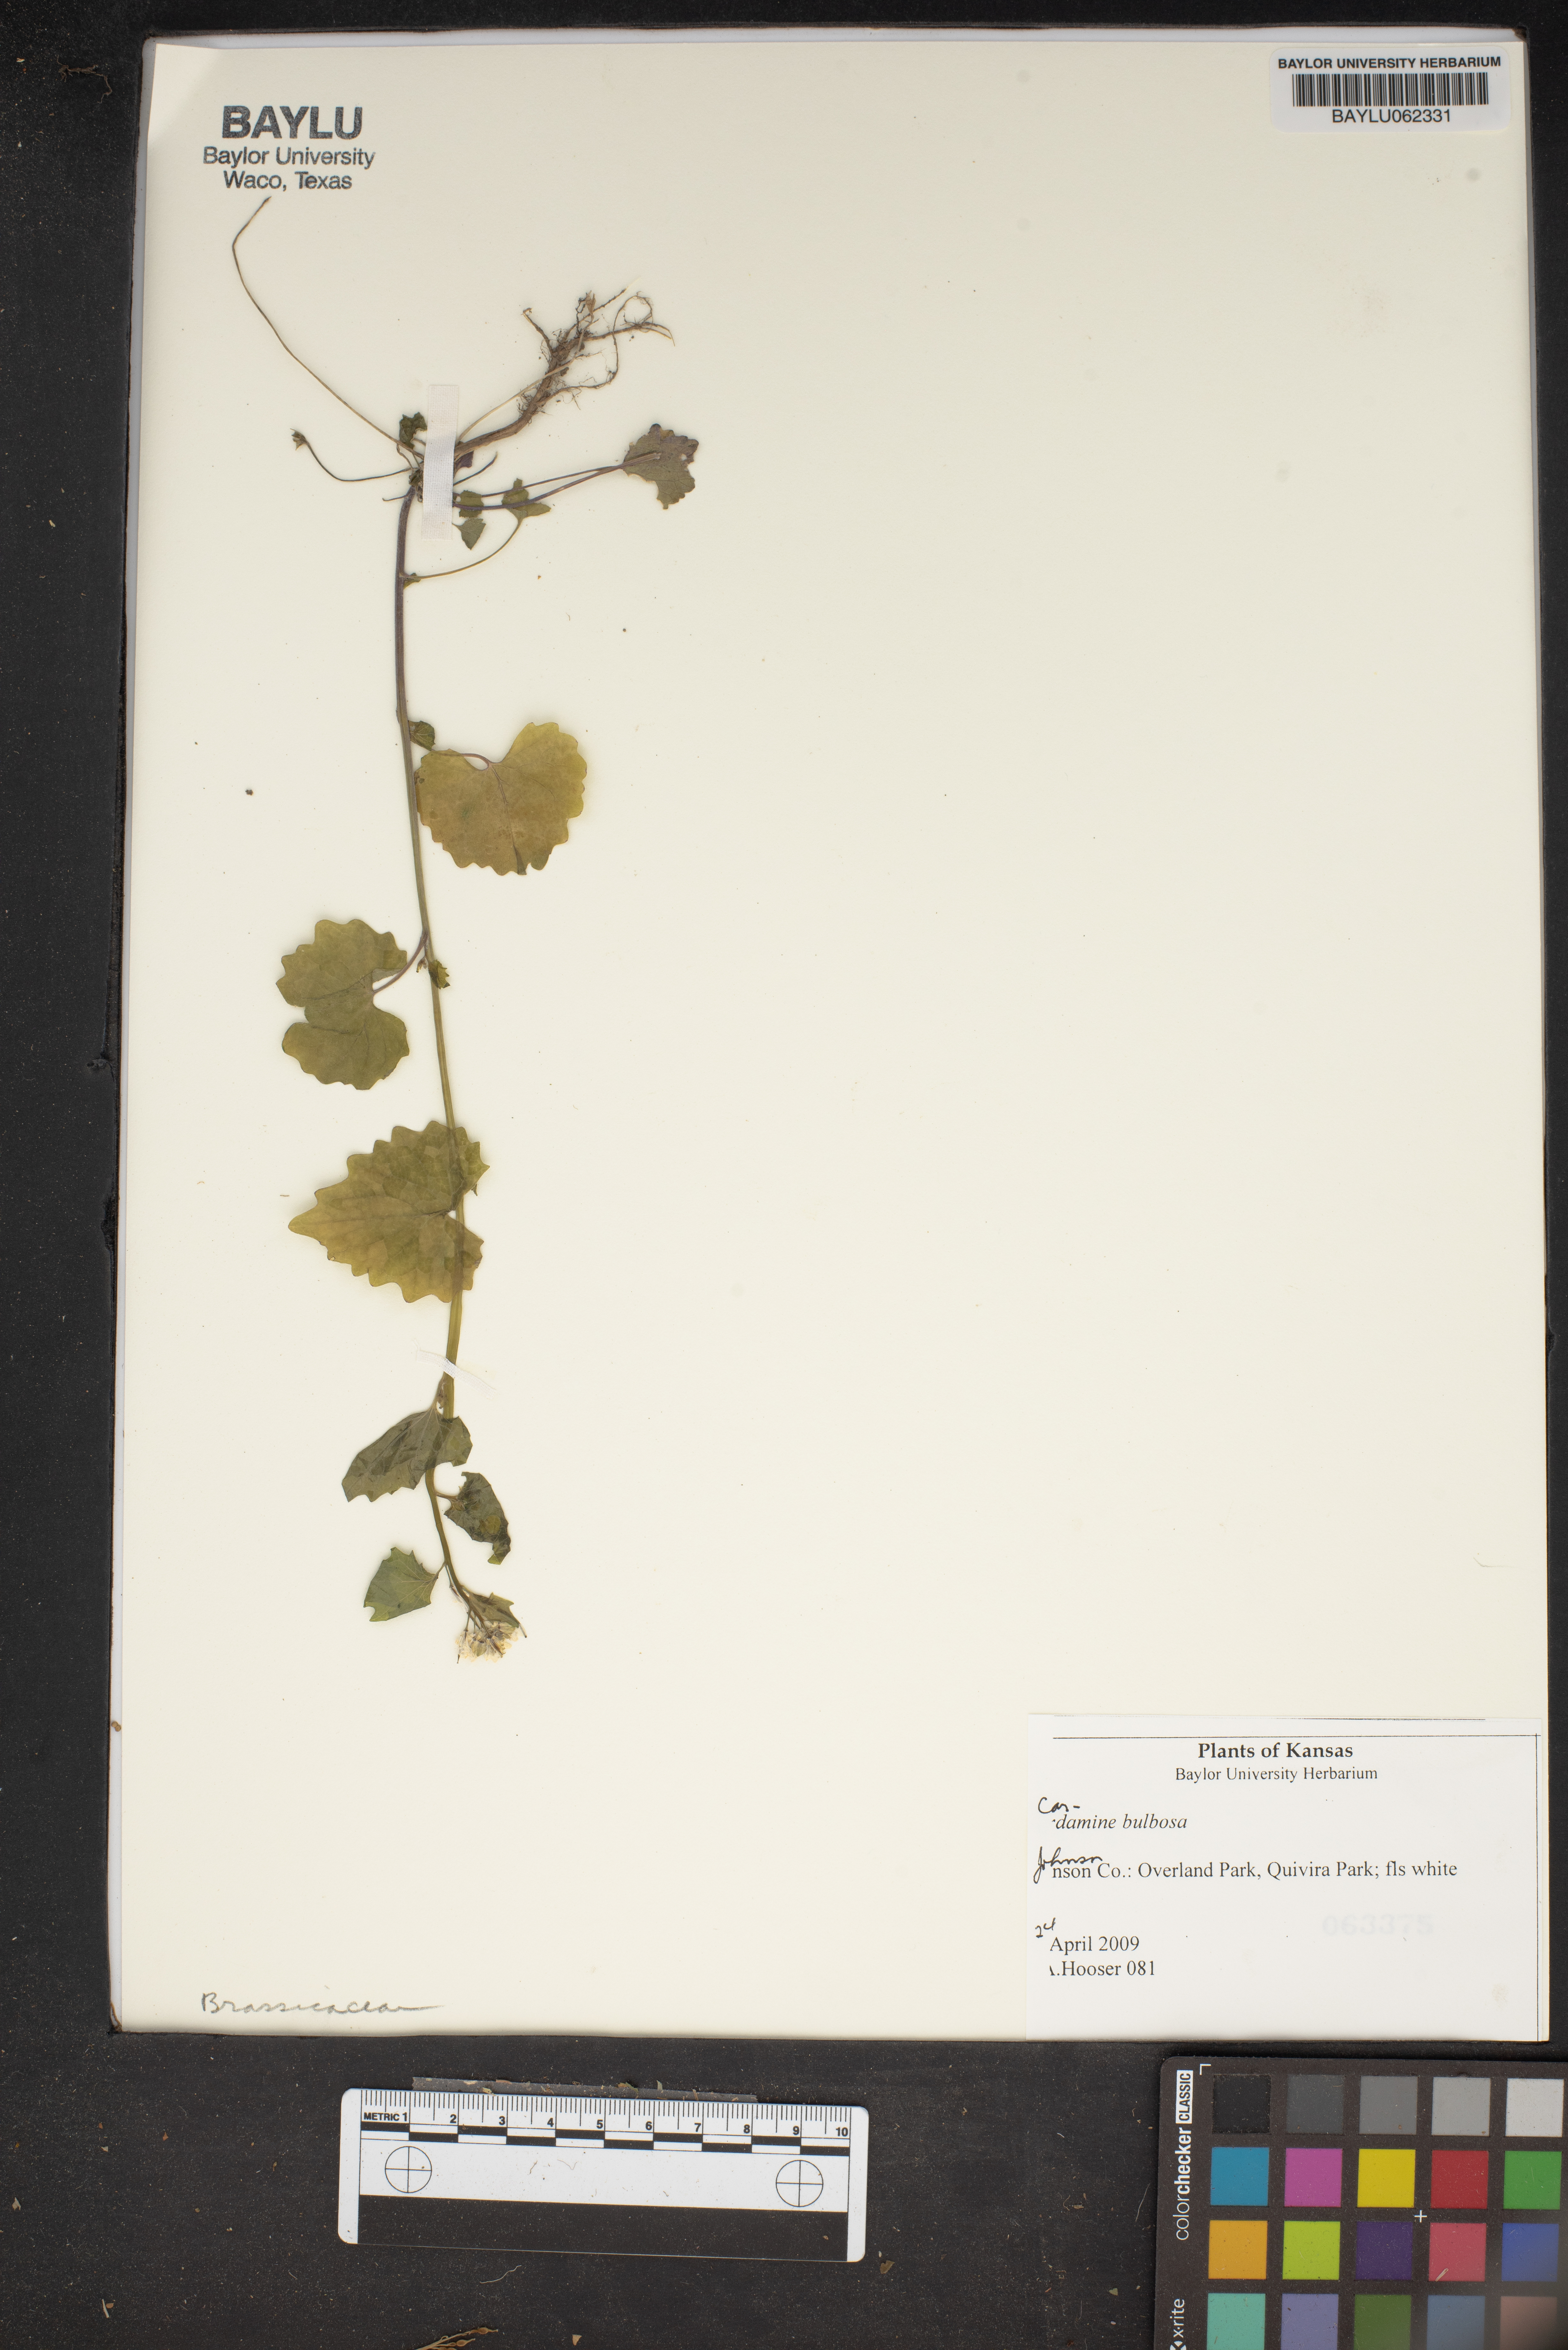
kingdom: Plantae
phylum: Tracheophyta
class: Magnoliopsida
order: Brassicales
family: Brassicaceae
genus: Cardamine
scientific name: Cardamine bulbosa
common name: Spring cress
